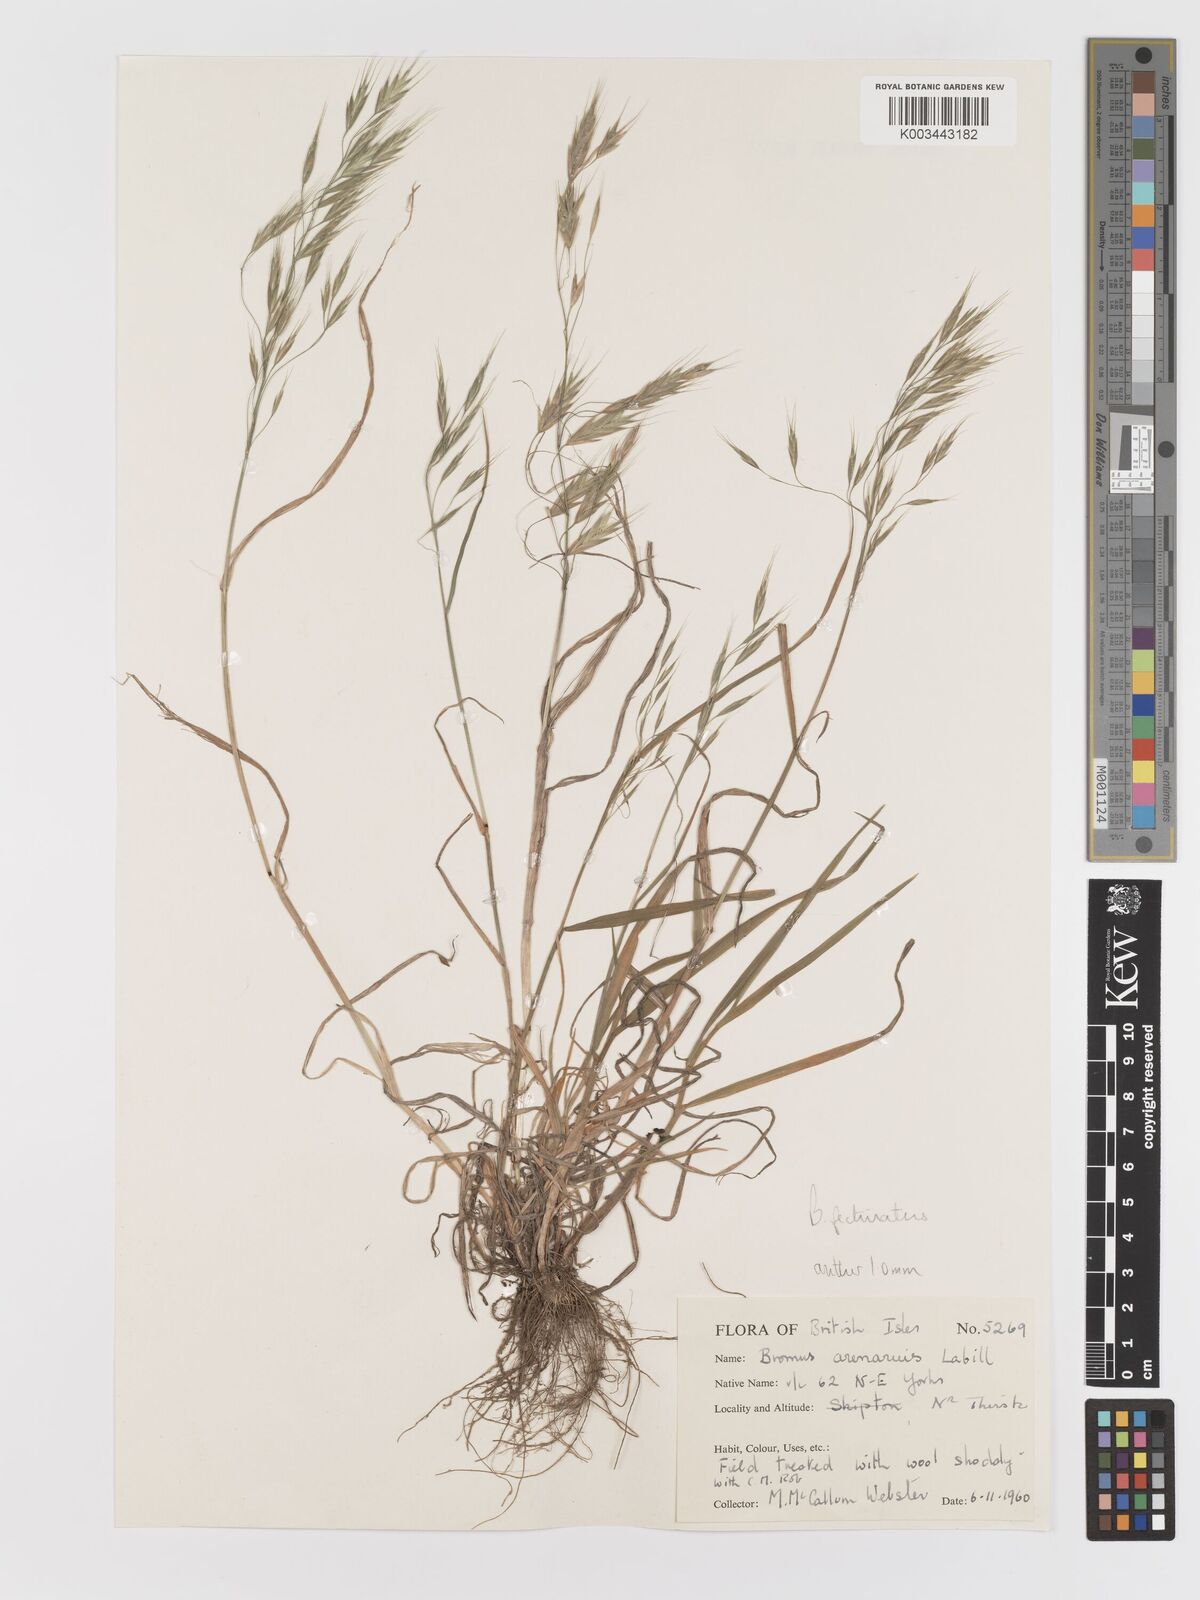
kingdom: Plantae
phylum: Tracheophyta
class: Liliopsida
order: Poales
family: Poaceae
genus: Bromus
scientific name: Bromus pectinatus
